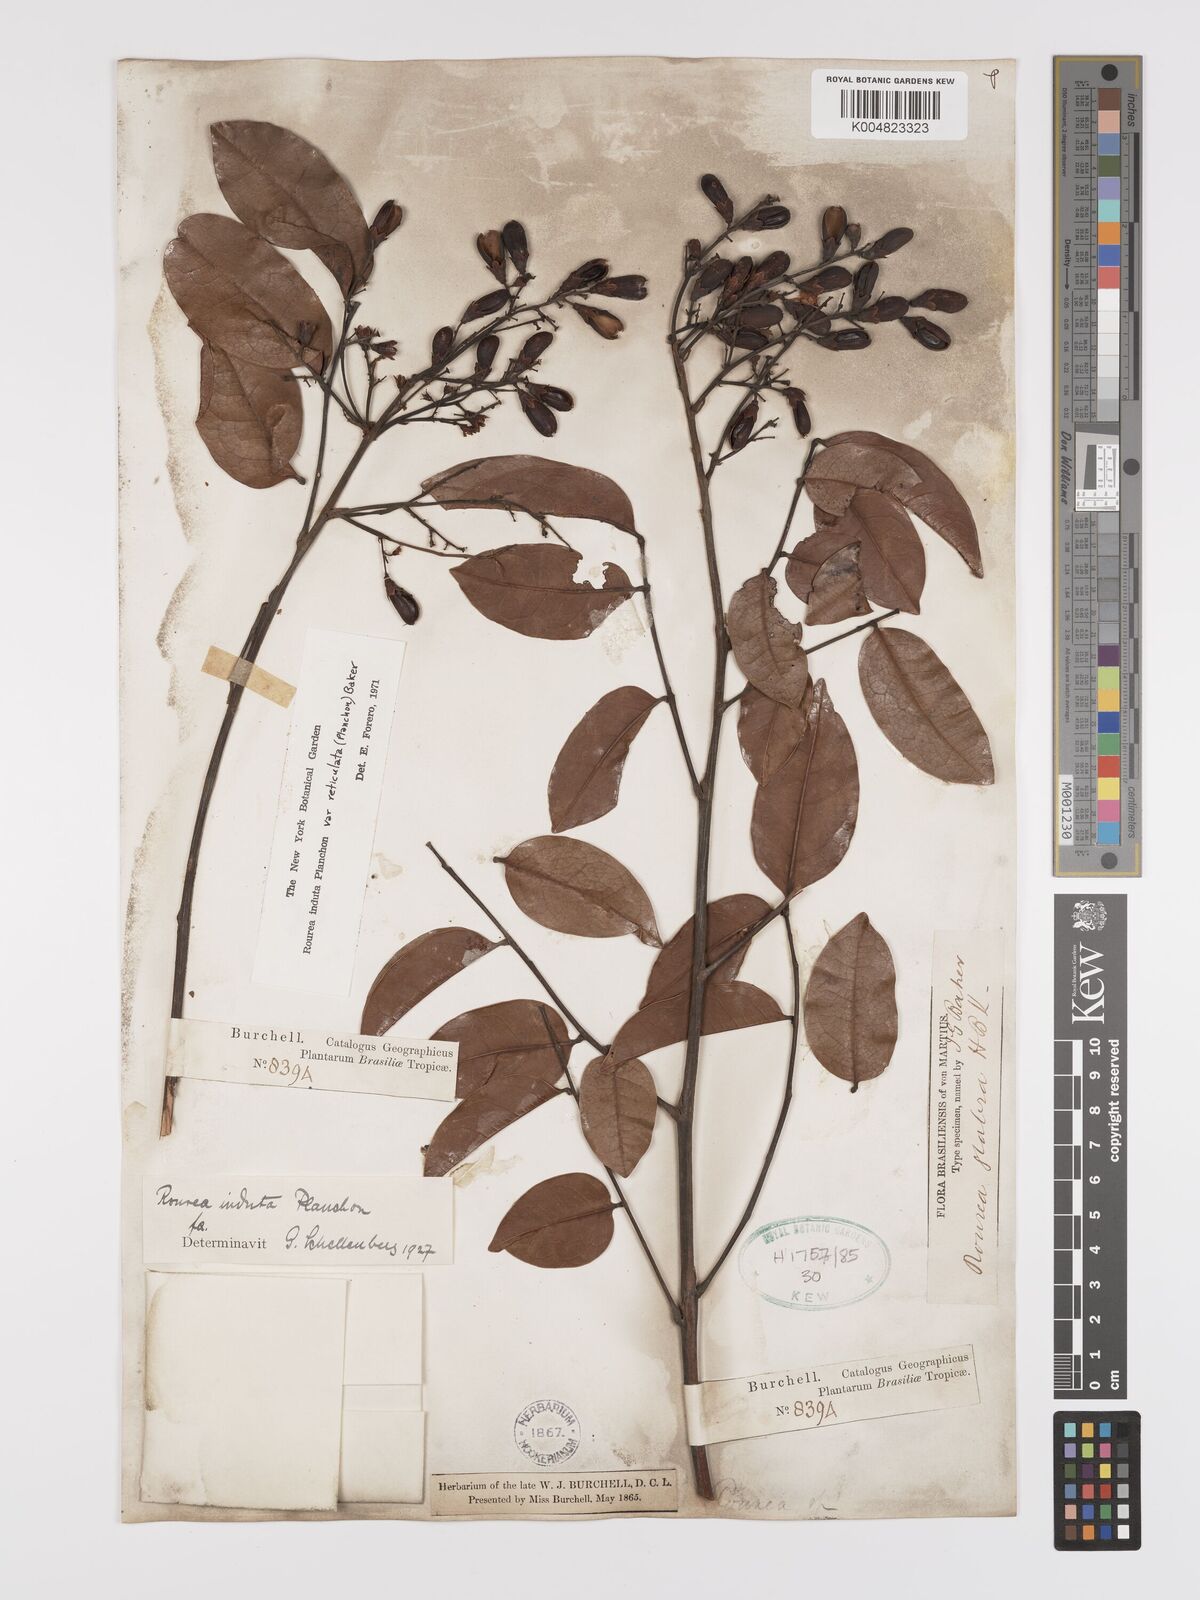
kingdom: Plantae
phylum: Tracheophyta
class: Magnoliopsida
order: Oxalidales
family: Connaraceae
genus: Rourea
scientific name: Rourea induta
